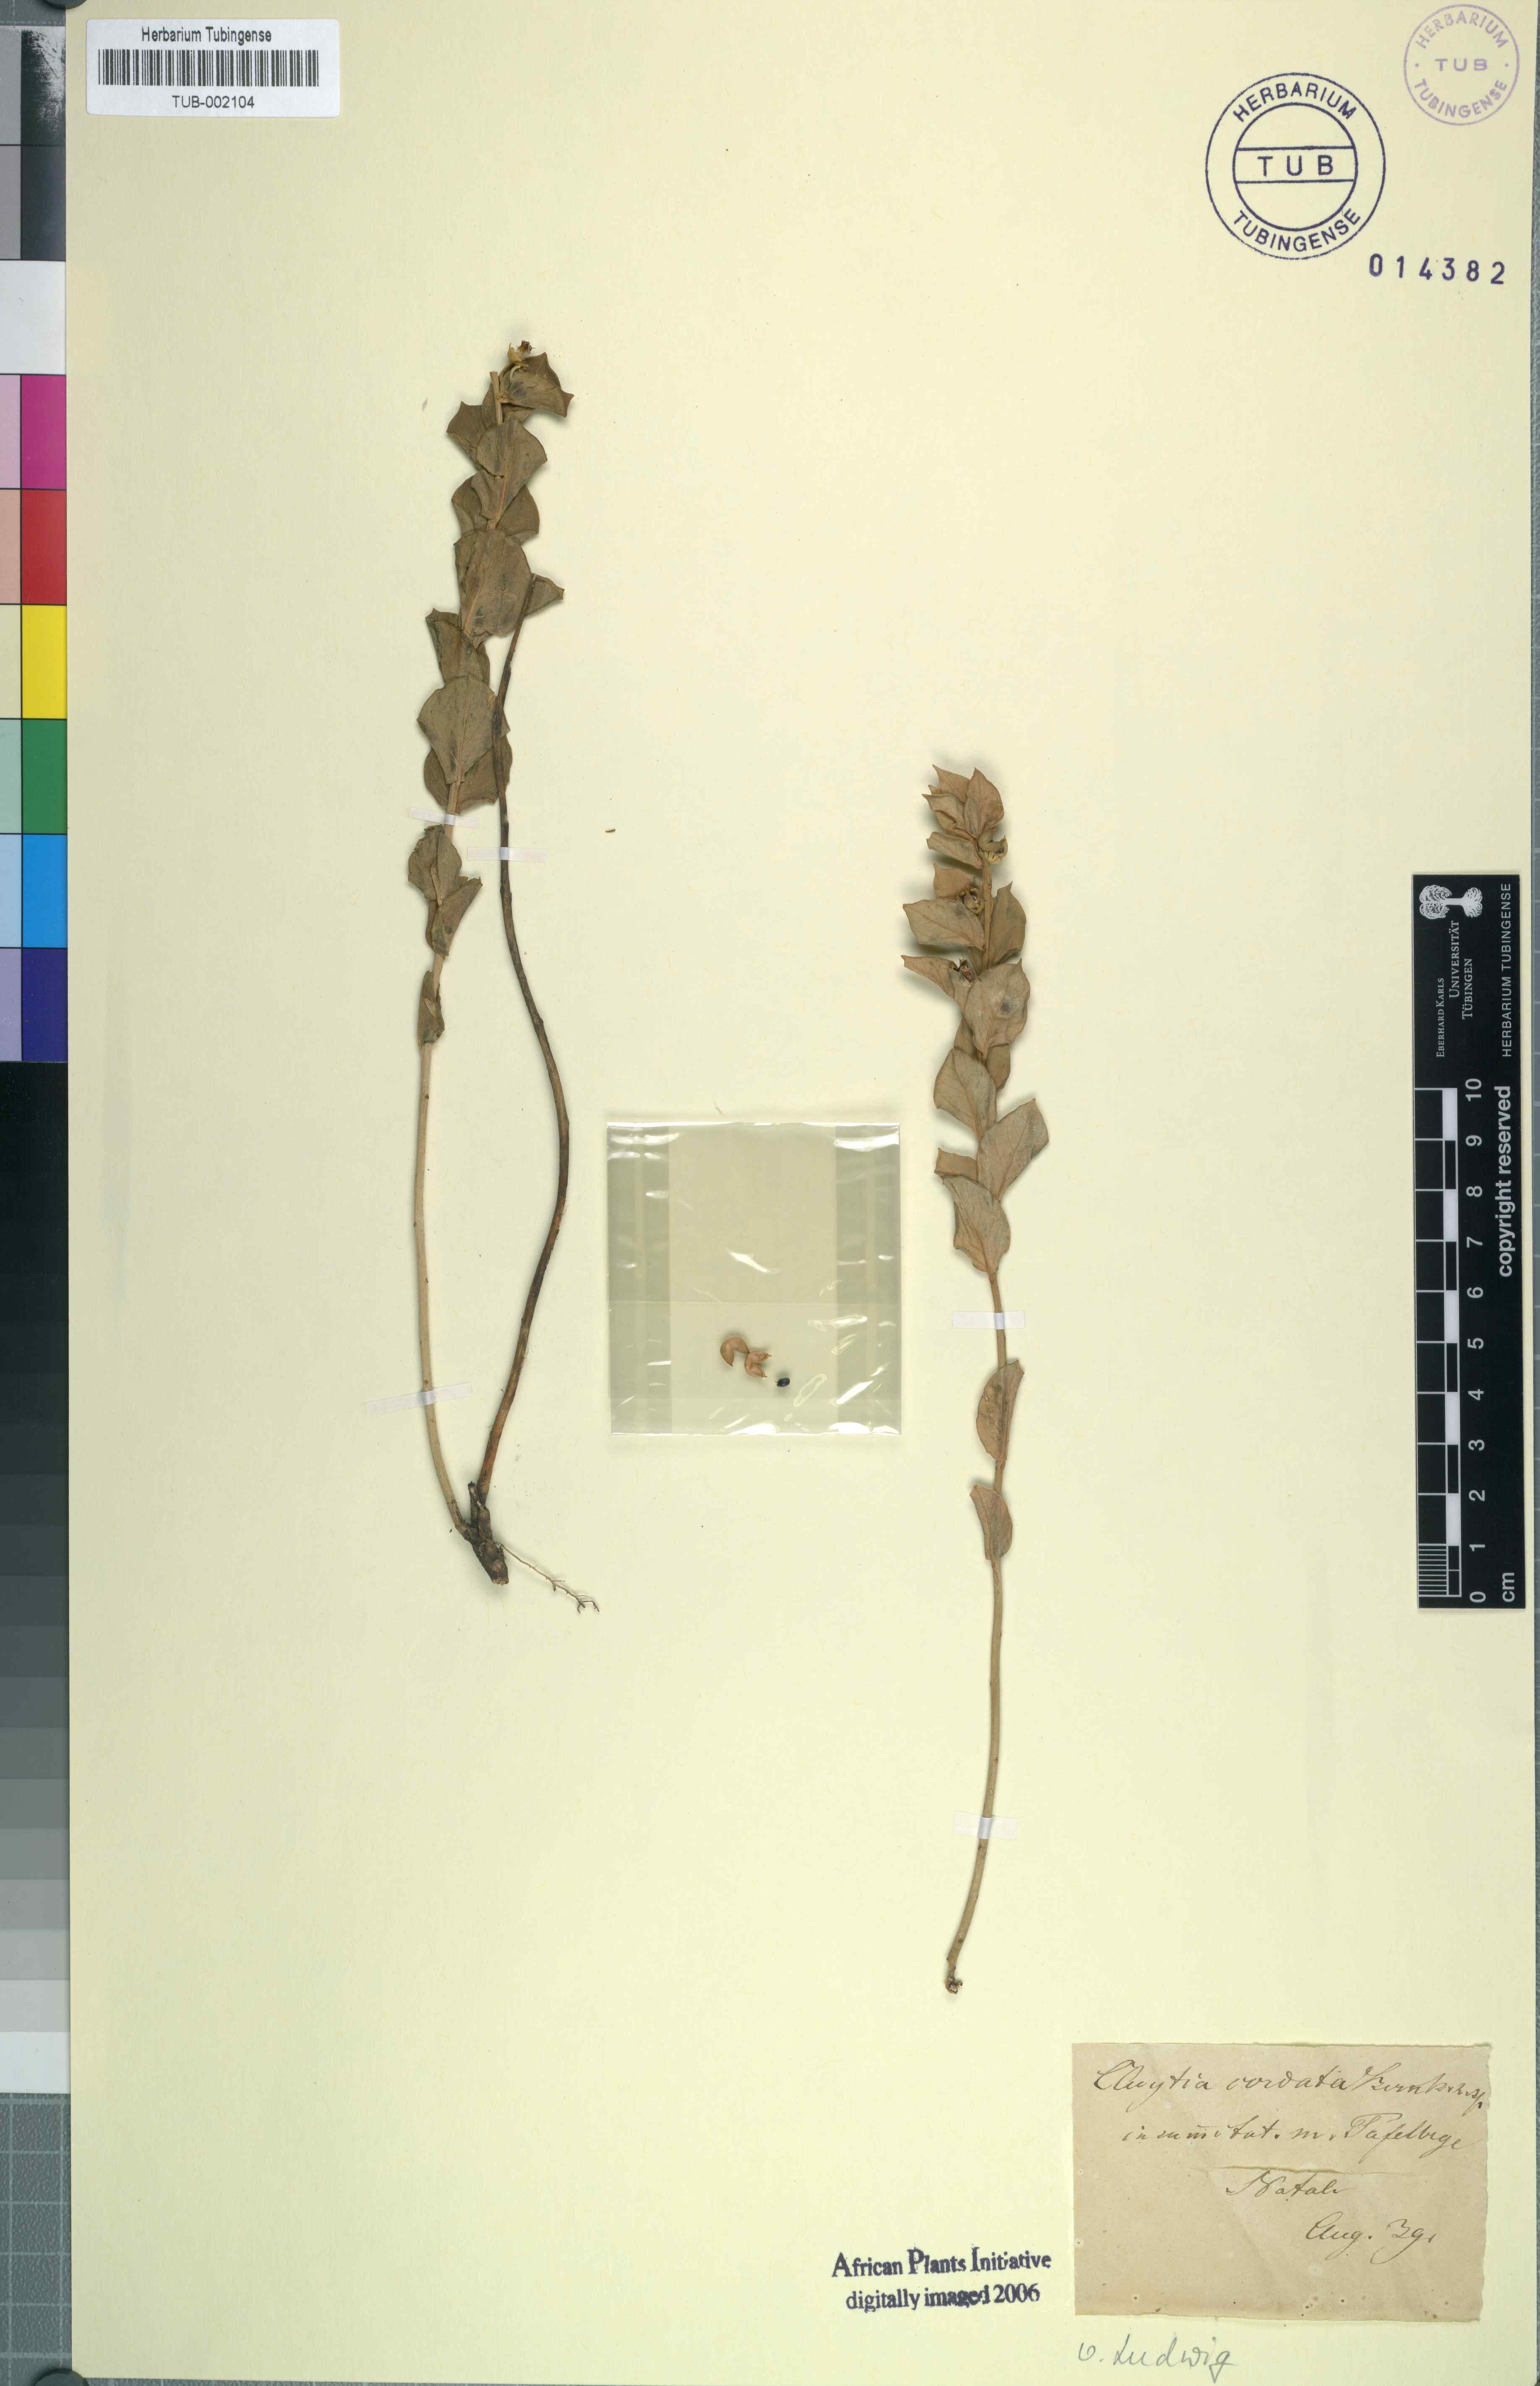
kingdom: Plantae
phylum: Tracheophyta
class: Magnoliopsida
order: Malpighiales
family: Peraceae
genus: Clutia
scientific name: Clutia cordata
